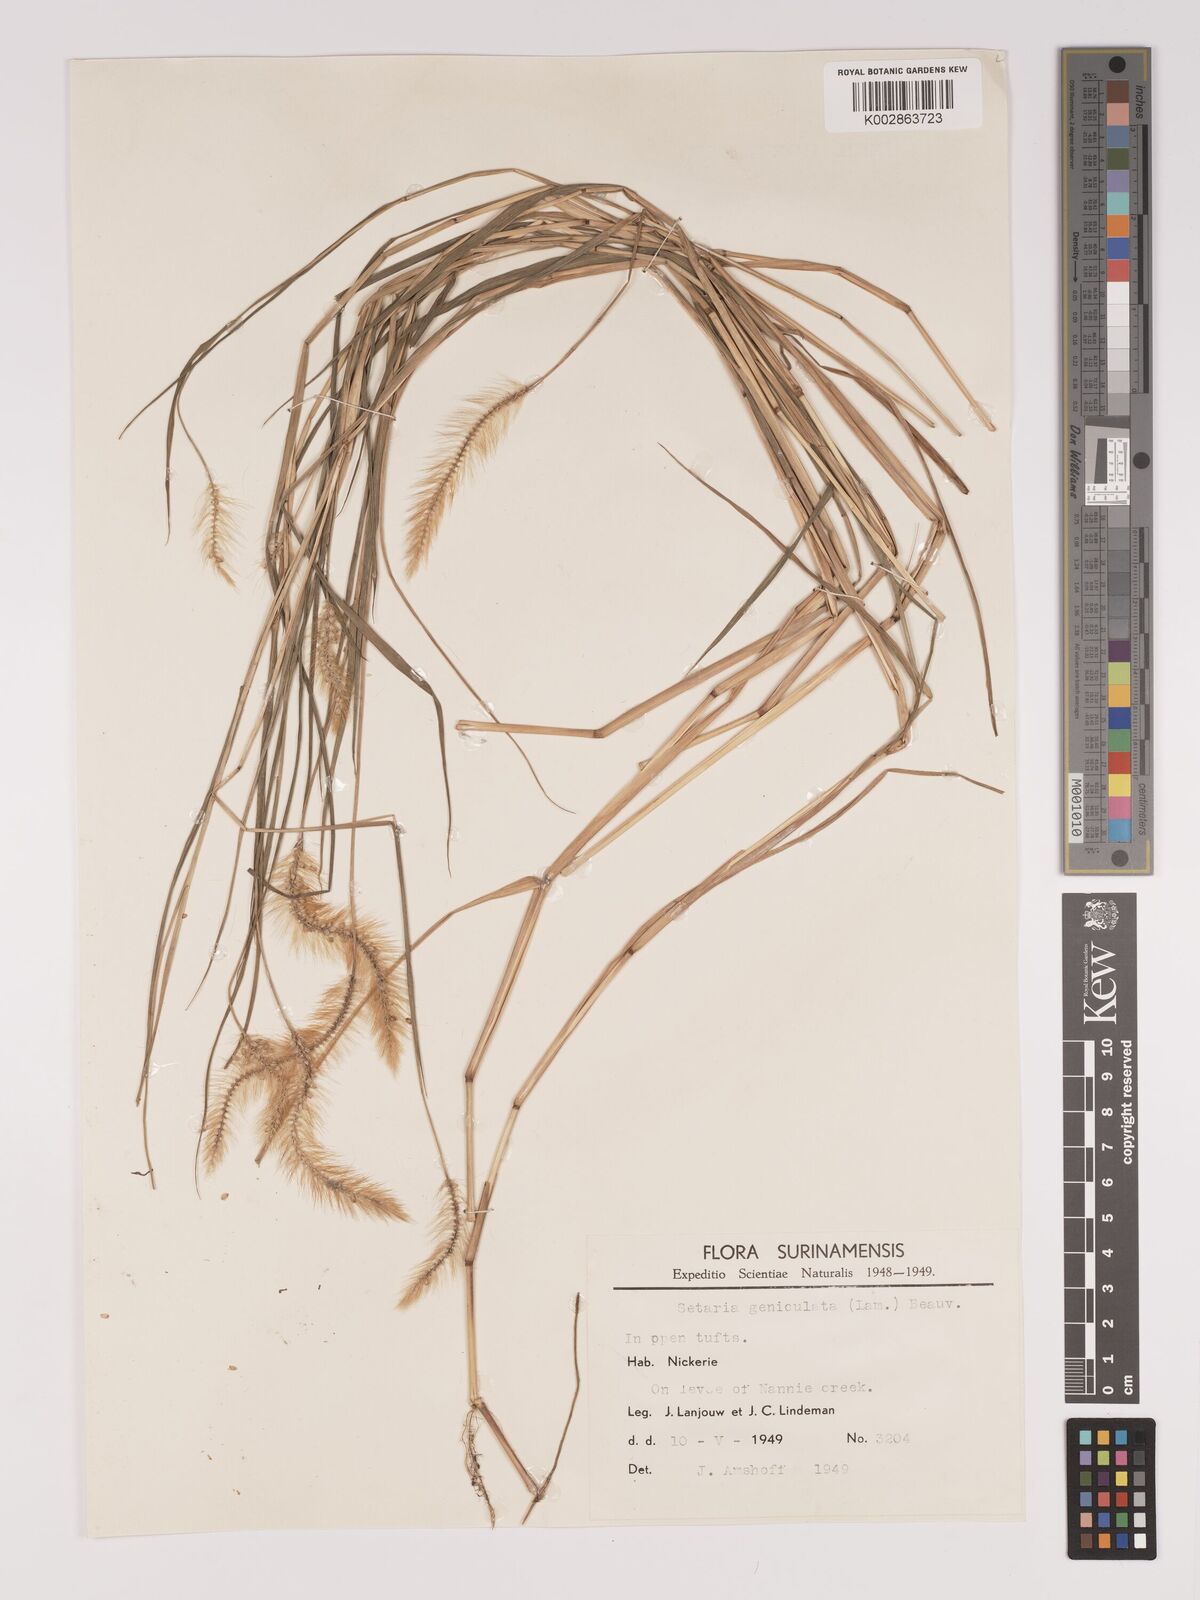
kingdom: Plantae
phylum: Tracheophyta
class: Liliopsida
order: Poales
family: Poaceae
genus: Setaria
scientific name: Setaria parviflora
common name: Knotroot bristle-grass
